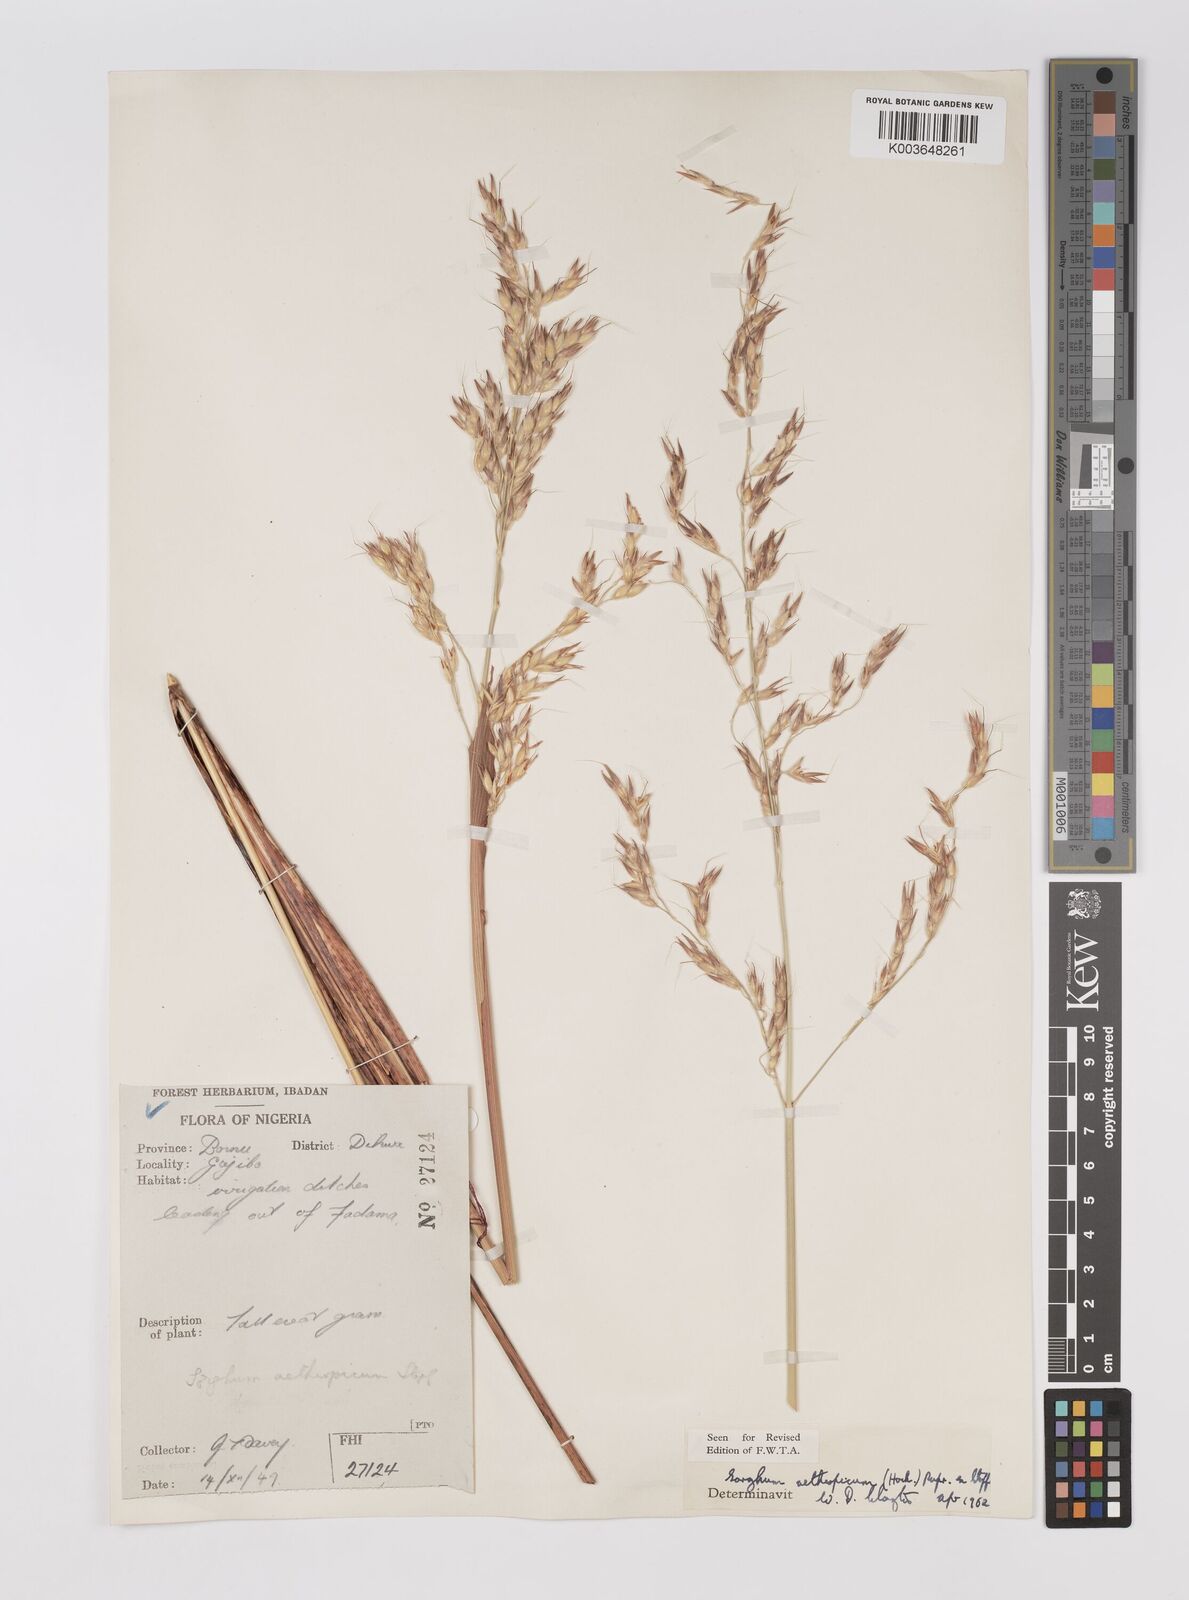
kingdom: Plantae
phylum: Tracheophyta
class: Liliopsida
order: Poales
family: Poaceae
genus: Sorghum
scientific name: Sorghum arundinaceum
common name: Sorghum
